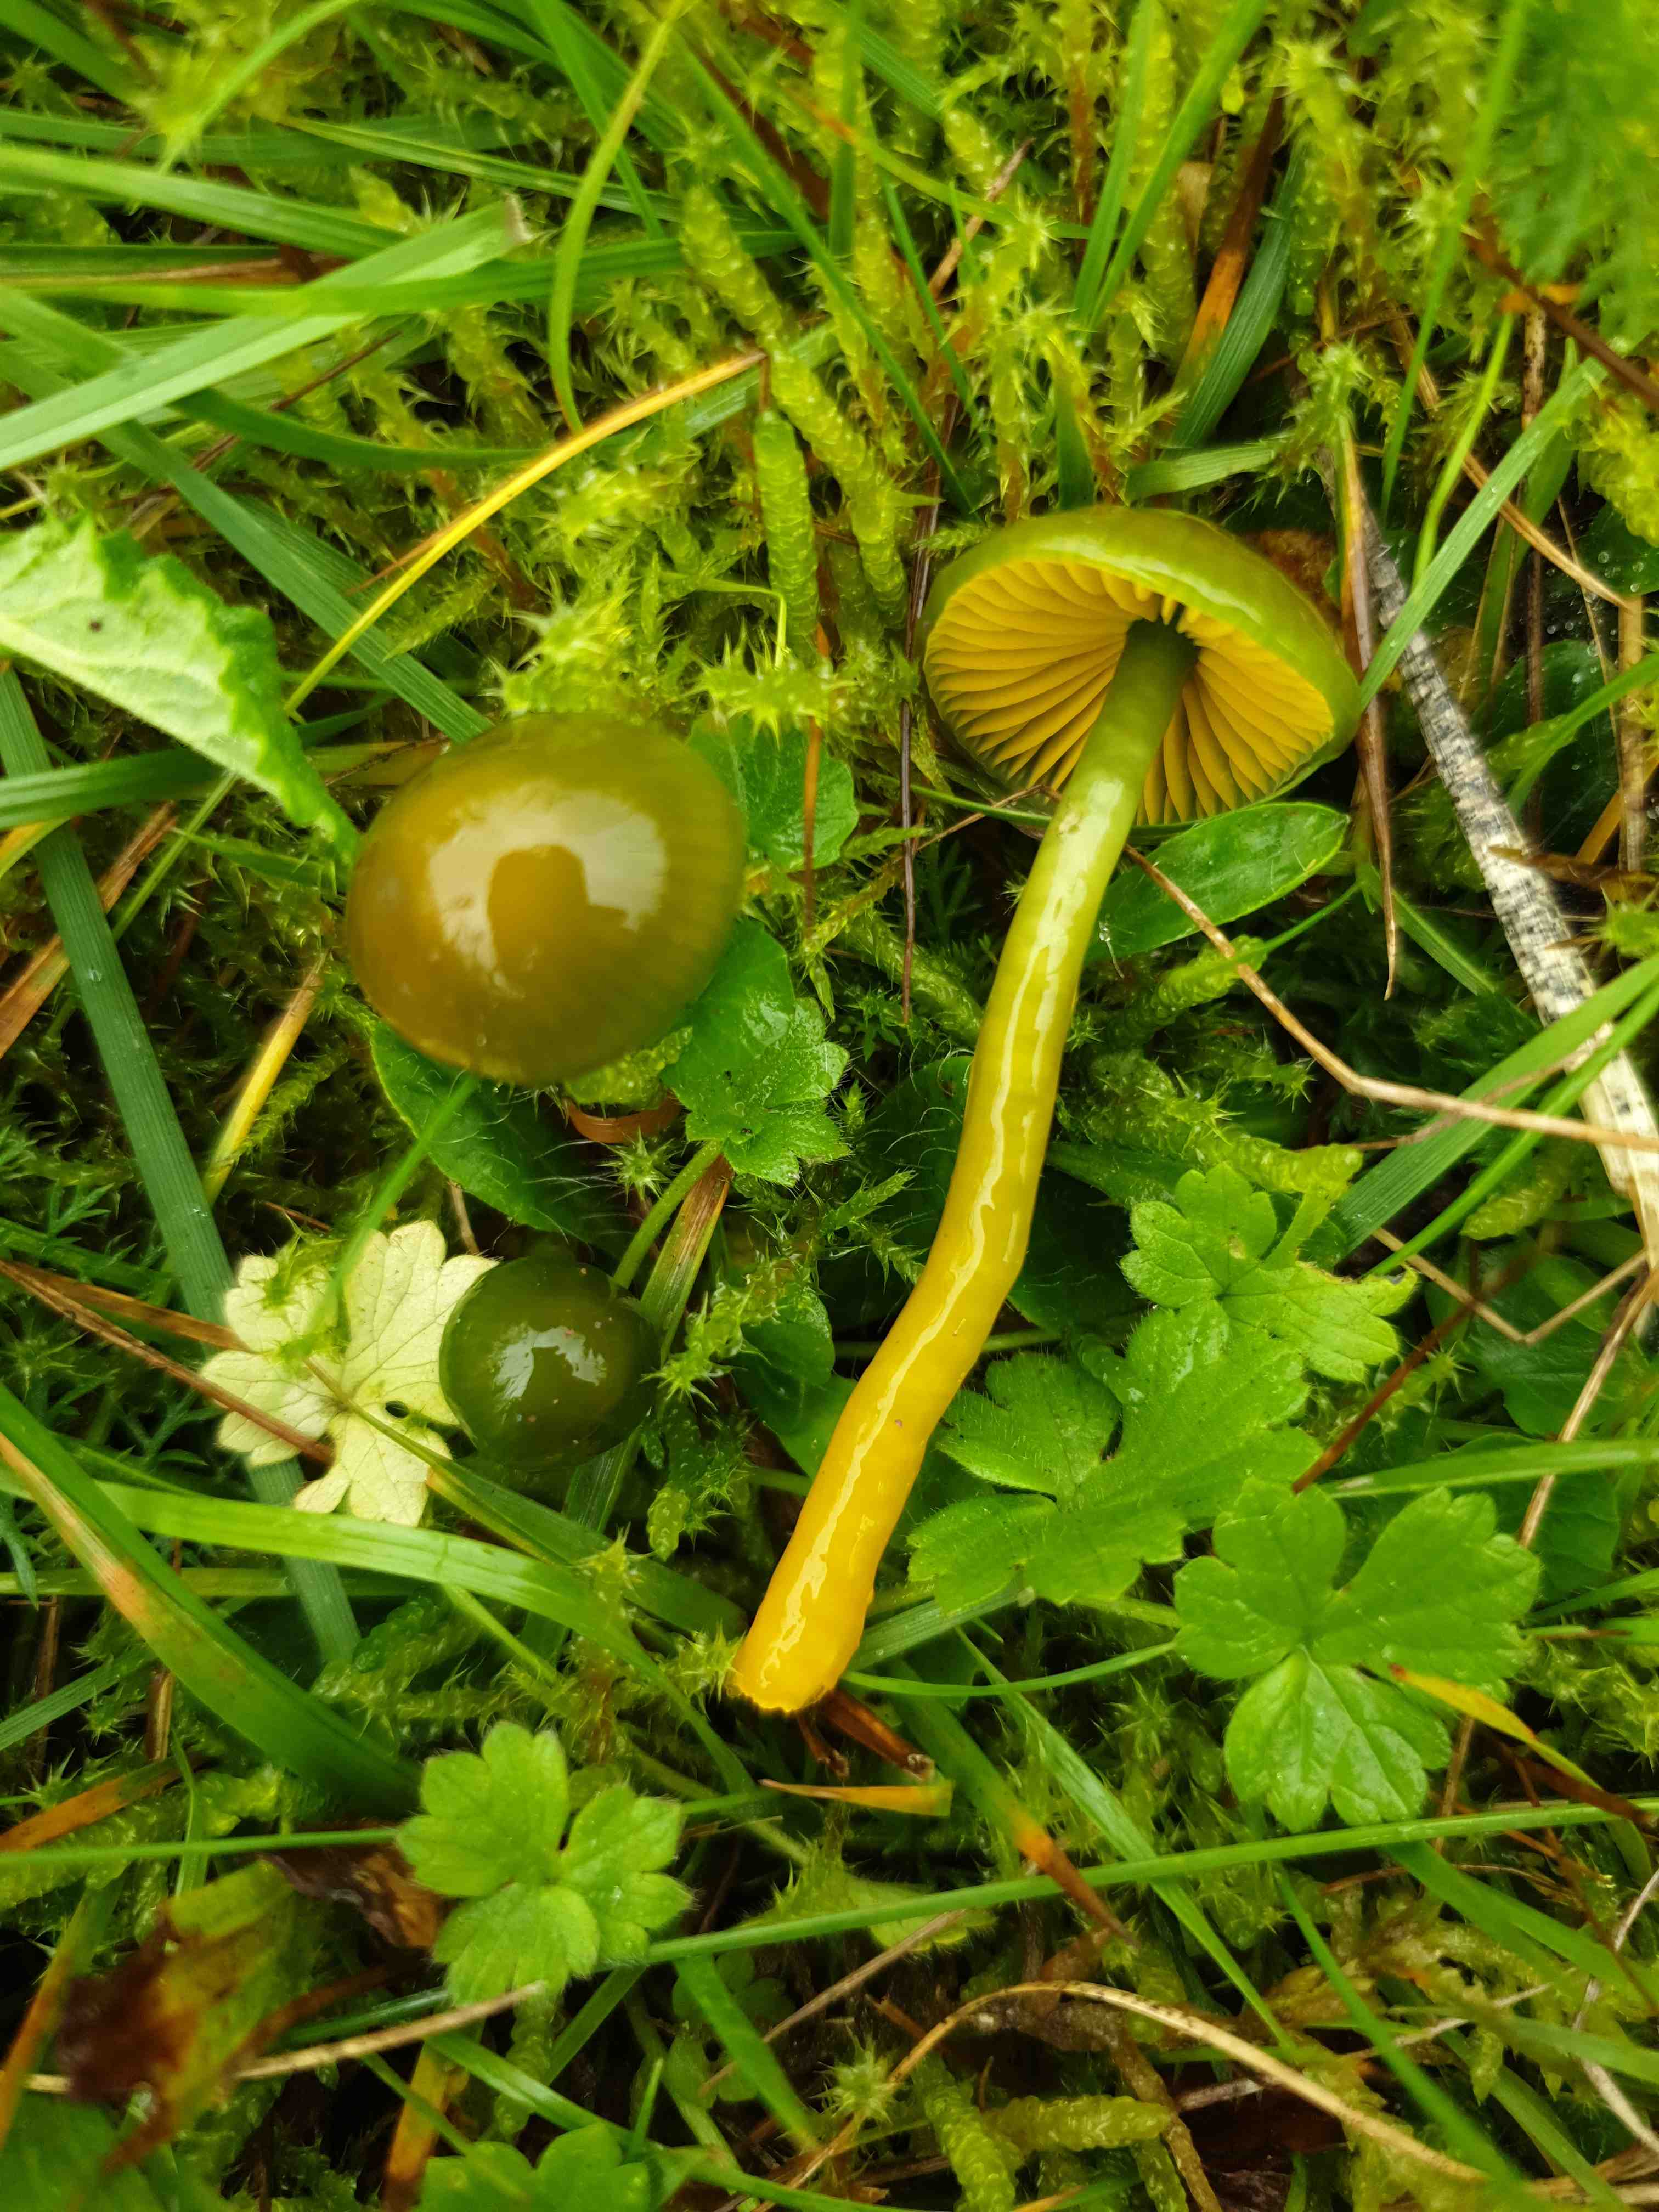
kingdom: Fungi
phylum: Basidiomycota
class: Agaricomycetes
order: Agaricales
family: Hygrophoraceae
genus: Gliophorus
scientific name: Gliophorus psittacinus
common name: papegøje-vokshat
